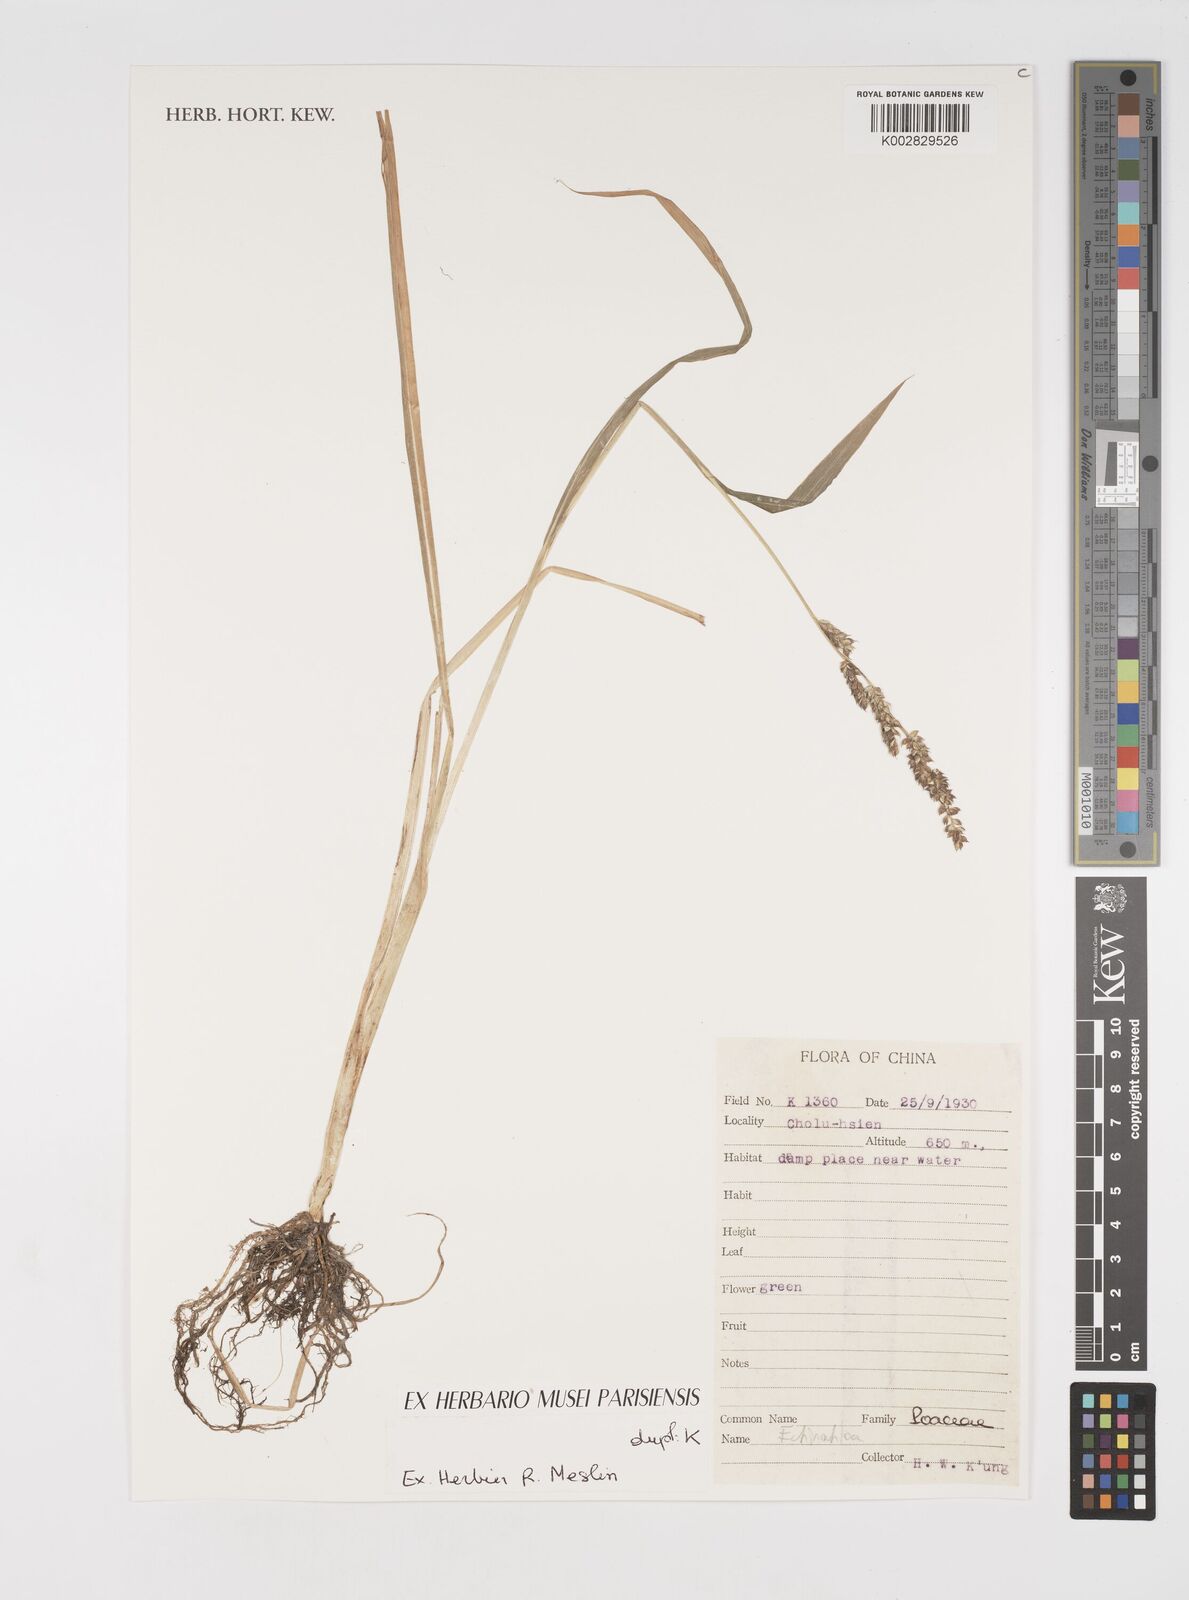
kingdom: Plantae
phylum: Tracheophyta
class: Liliopsida
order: Poales
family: Poaceae
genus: Echinochloa
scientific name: Echinochloa
